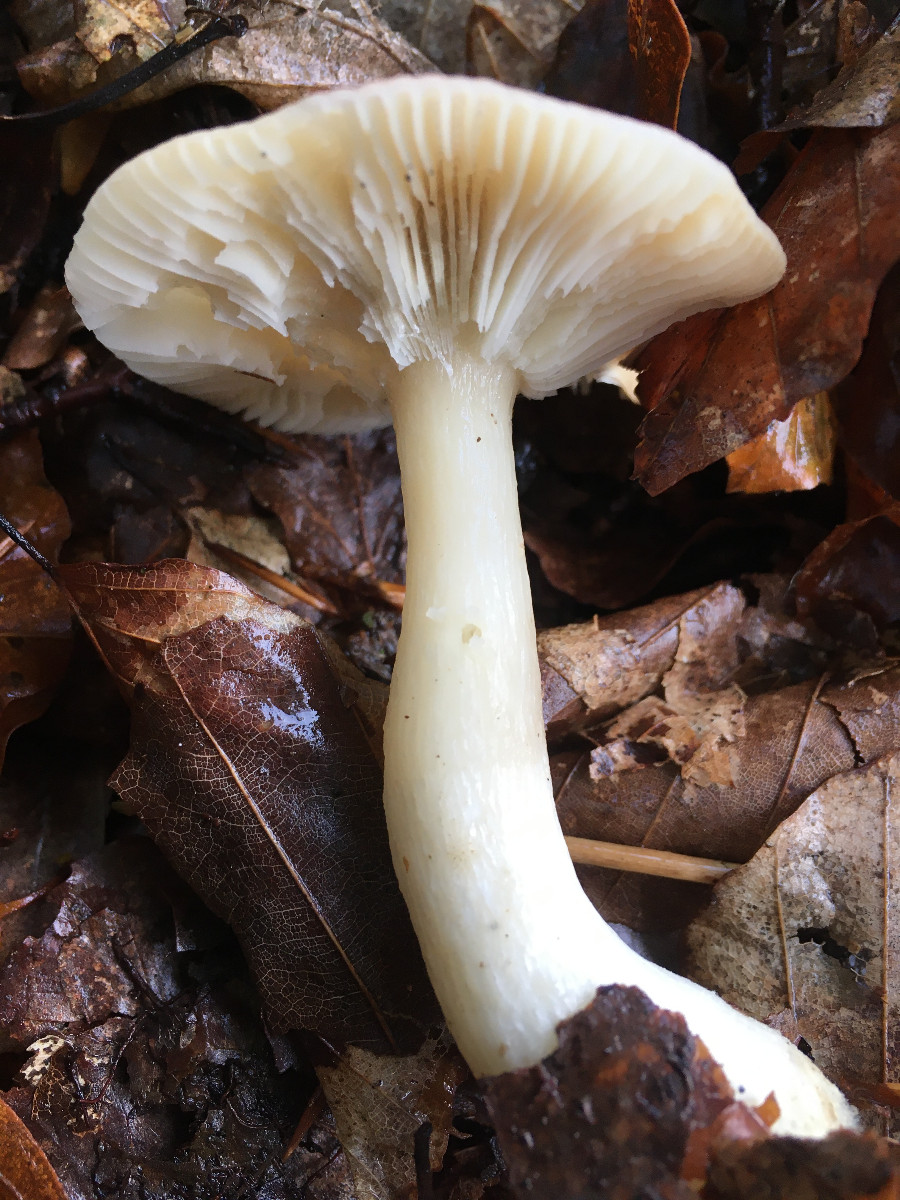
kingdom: Fungi
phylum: Basidiomycota
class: Agaricomycetes
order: Russulales
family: Russulaceae
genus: Russula
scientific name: Russula
